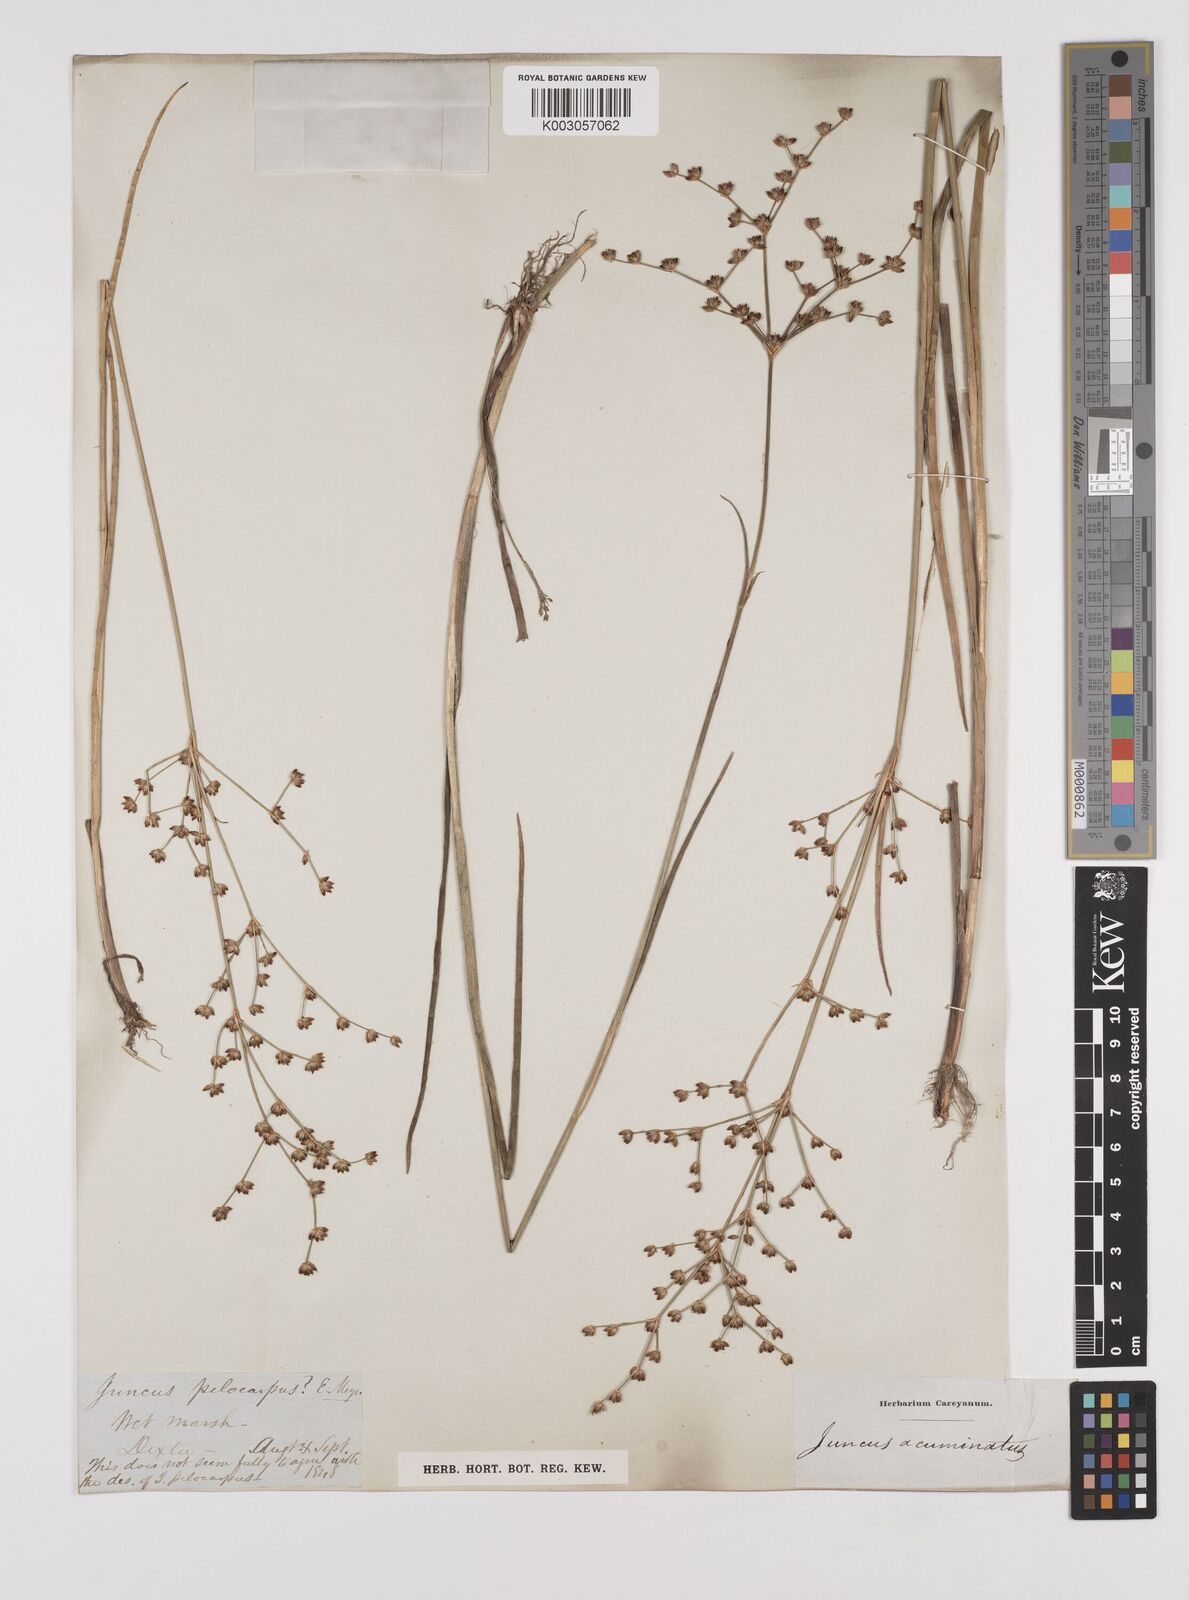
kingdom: Plantae
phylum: Tracheophyta
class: Liliopsida
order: Poales
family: Juncaceae
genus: Juncus
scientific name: Juncus pelocarpus
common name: Brown-fruited rush
